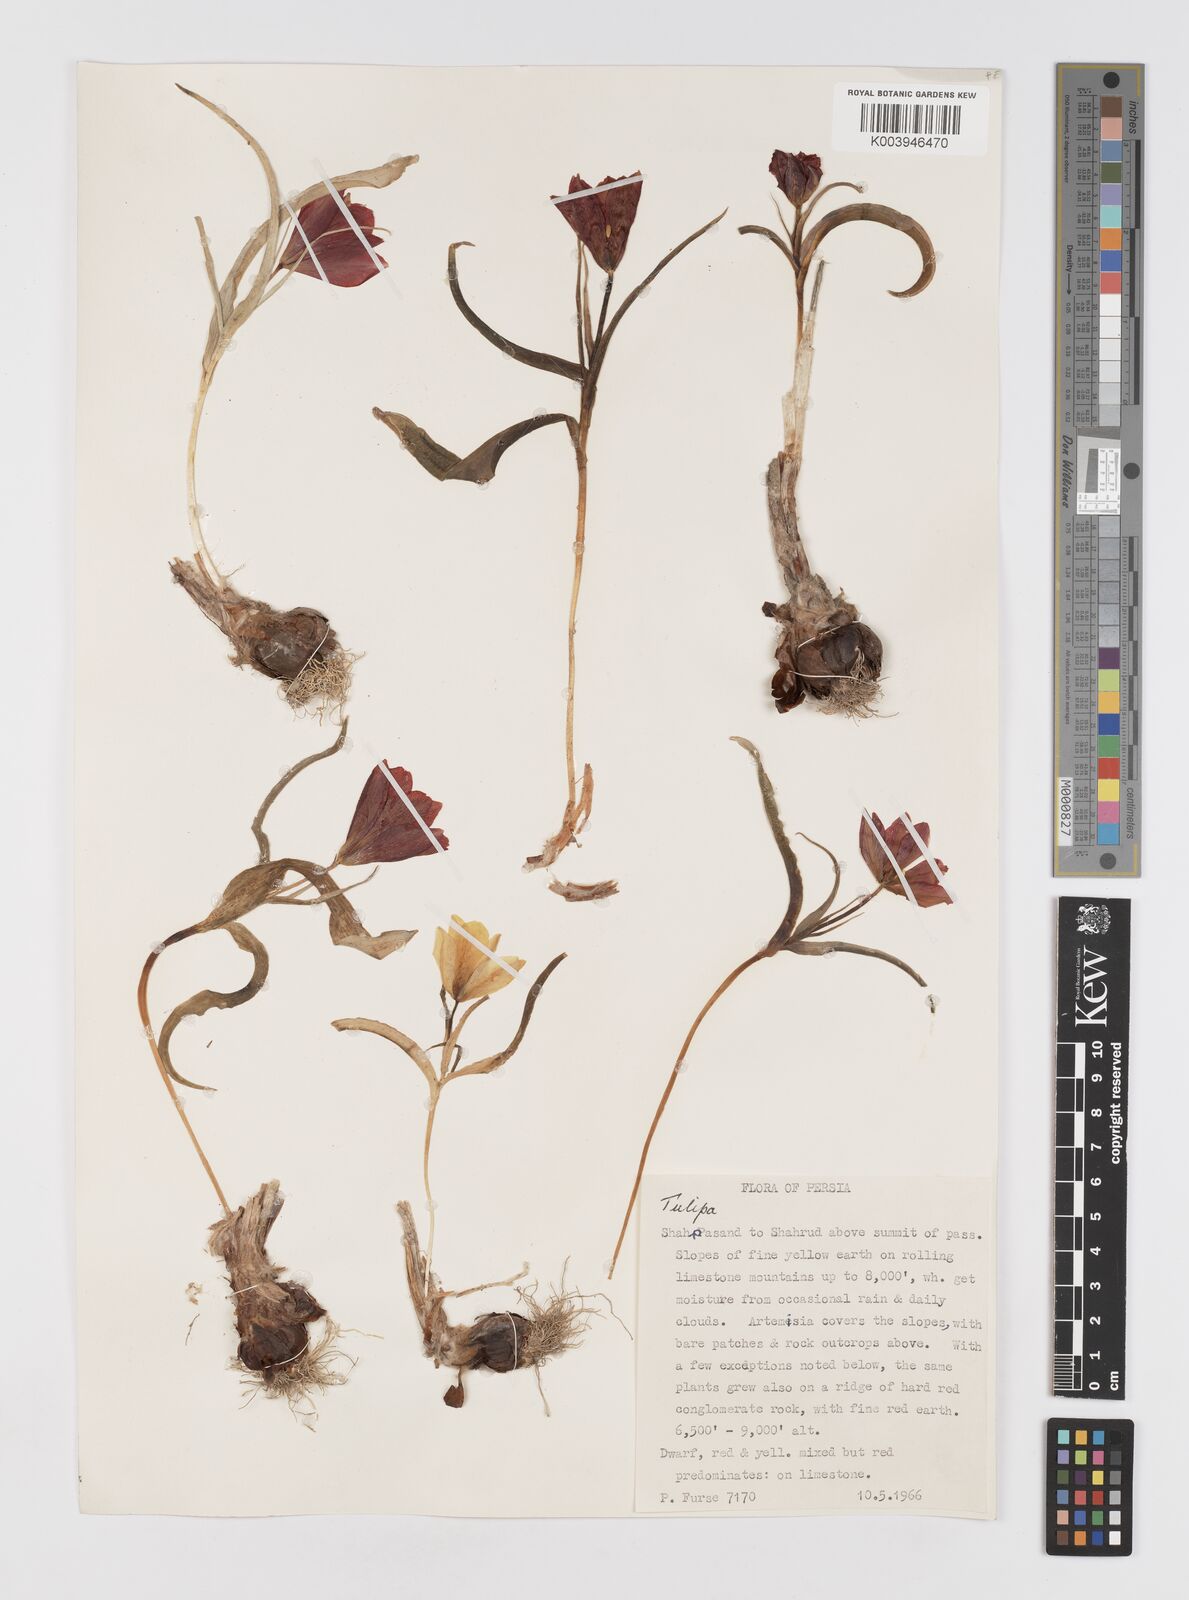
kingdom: Plantae
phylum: Tracheophyta
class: Liliopsida
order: Liliales
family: Liliaceae
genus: Tulipa
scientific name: Tulipa
